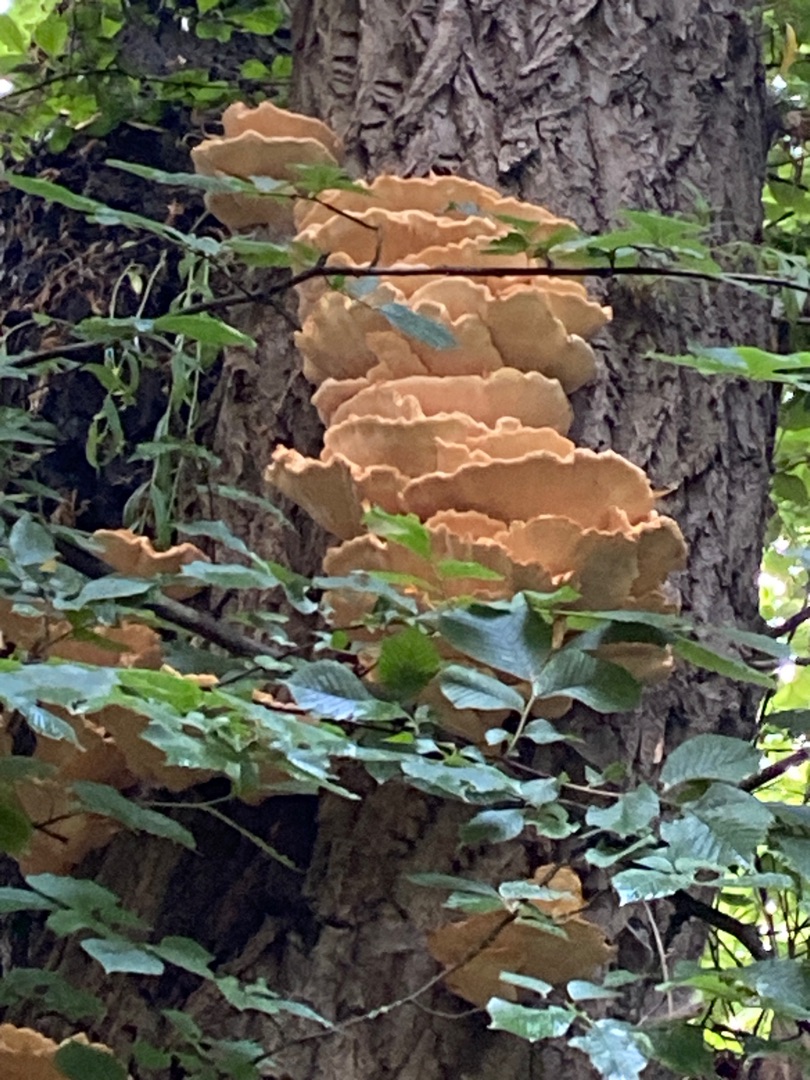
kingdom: Fungi
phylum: Basidiomycota
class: Agaricomycetes
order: Polyporales
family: Laetiporaceae
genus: Laetiporus
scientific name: Laetiporus sulphureus
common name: Svovlporesvamp
